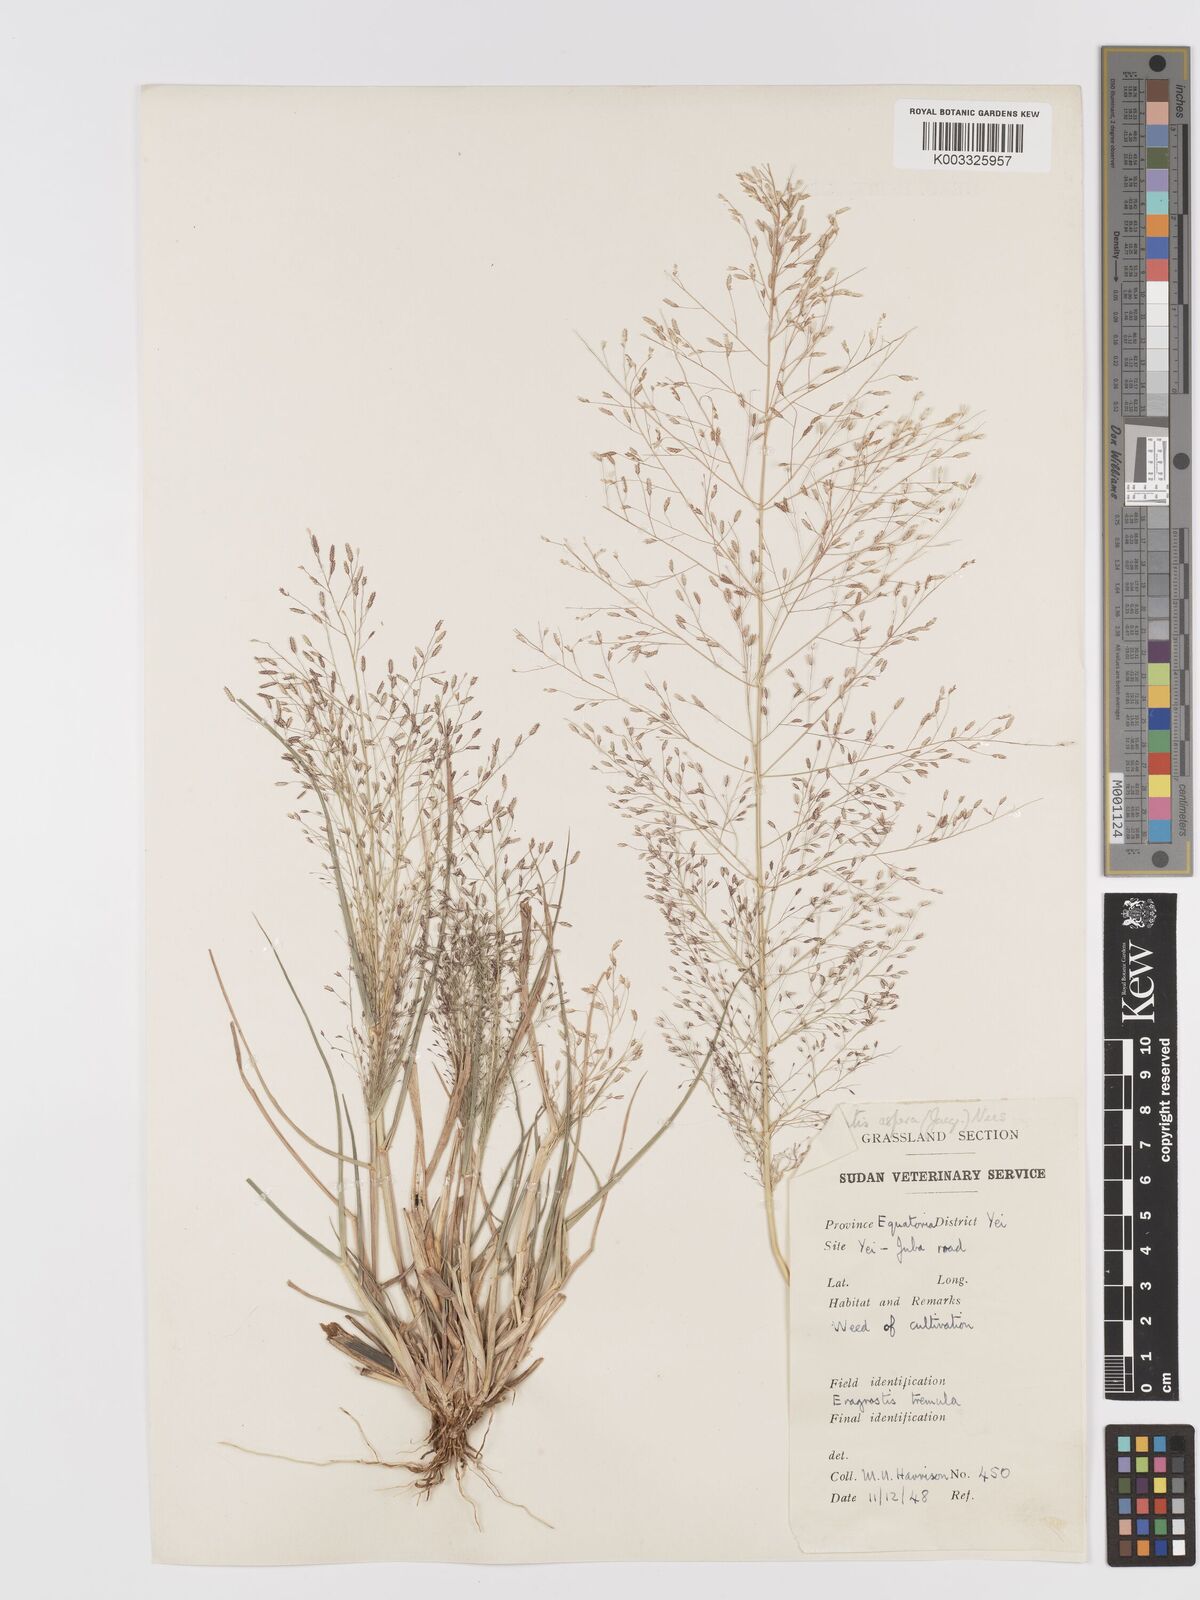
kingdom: Plantae
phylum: Tracheophyta
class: Liliopsida
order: Poales
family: Poaceae
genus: Eragrostis
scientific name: Eragrostis aspera
